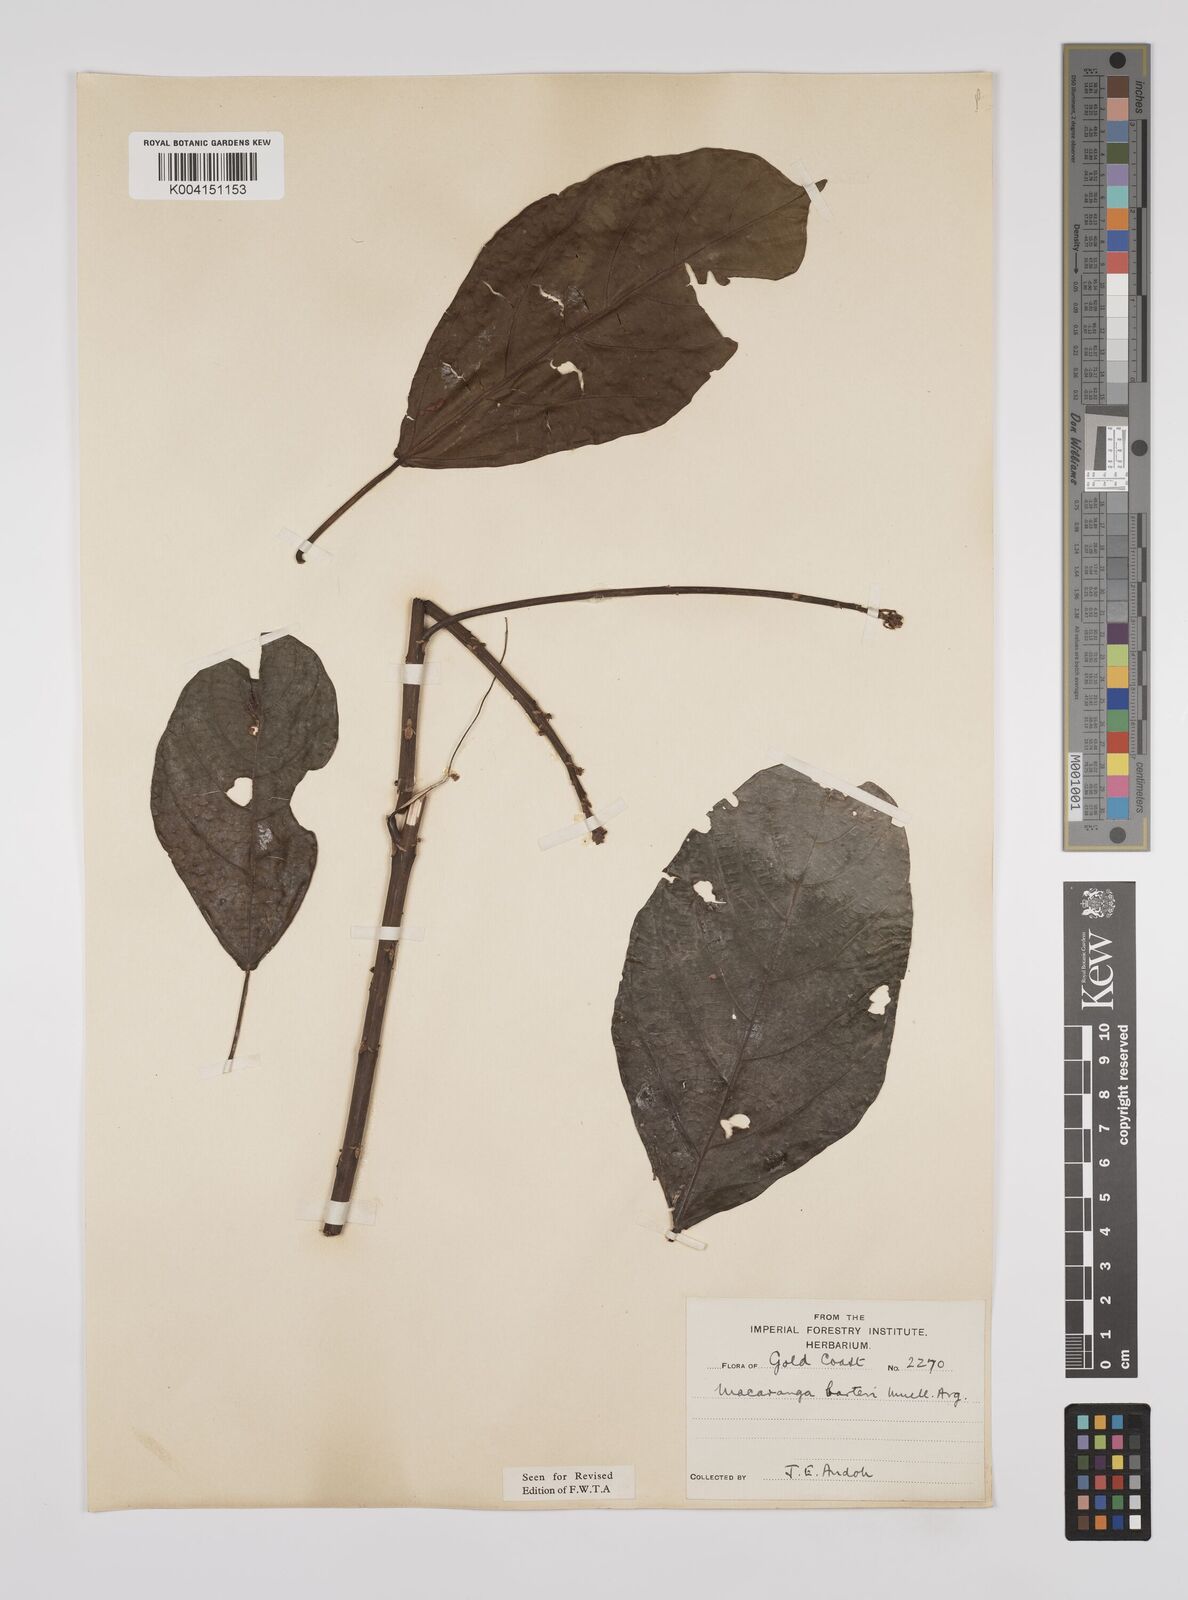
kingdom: Plantae
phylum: Tracheophyta
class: Magnoliopsida
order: Malpighiales
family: Euphorbiaceae
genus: Macaranga
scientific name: Macaranga barteri
